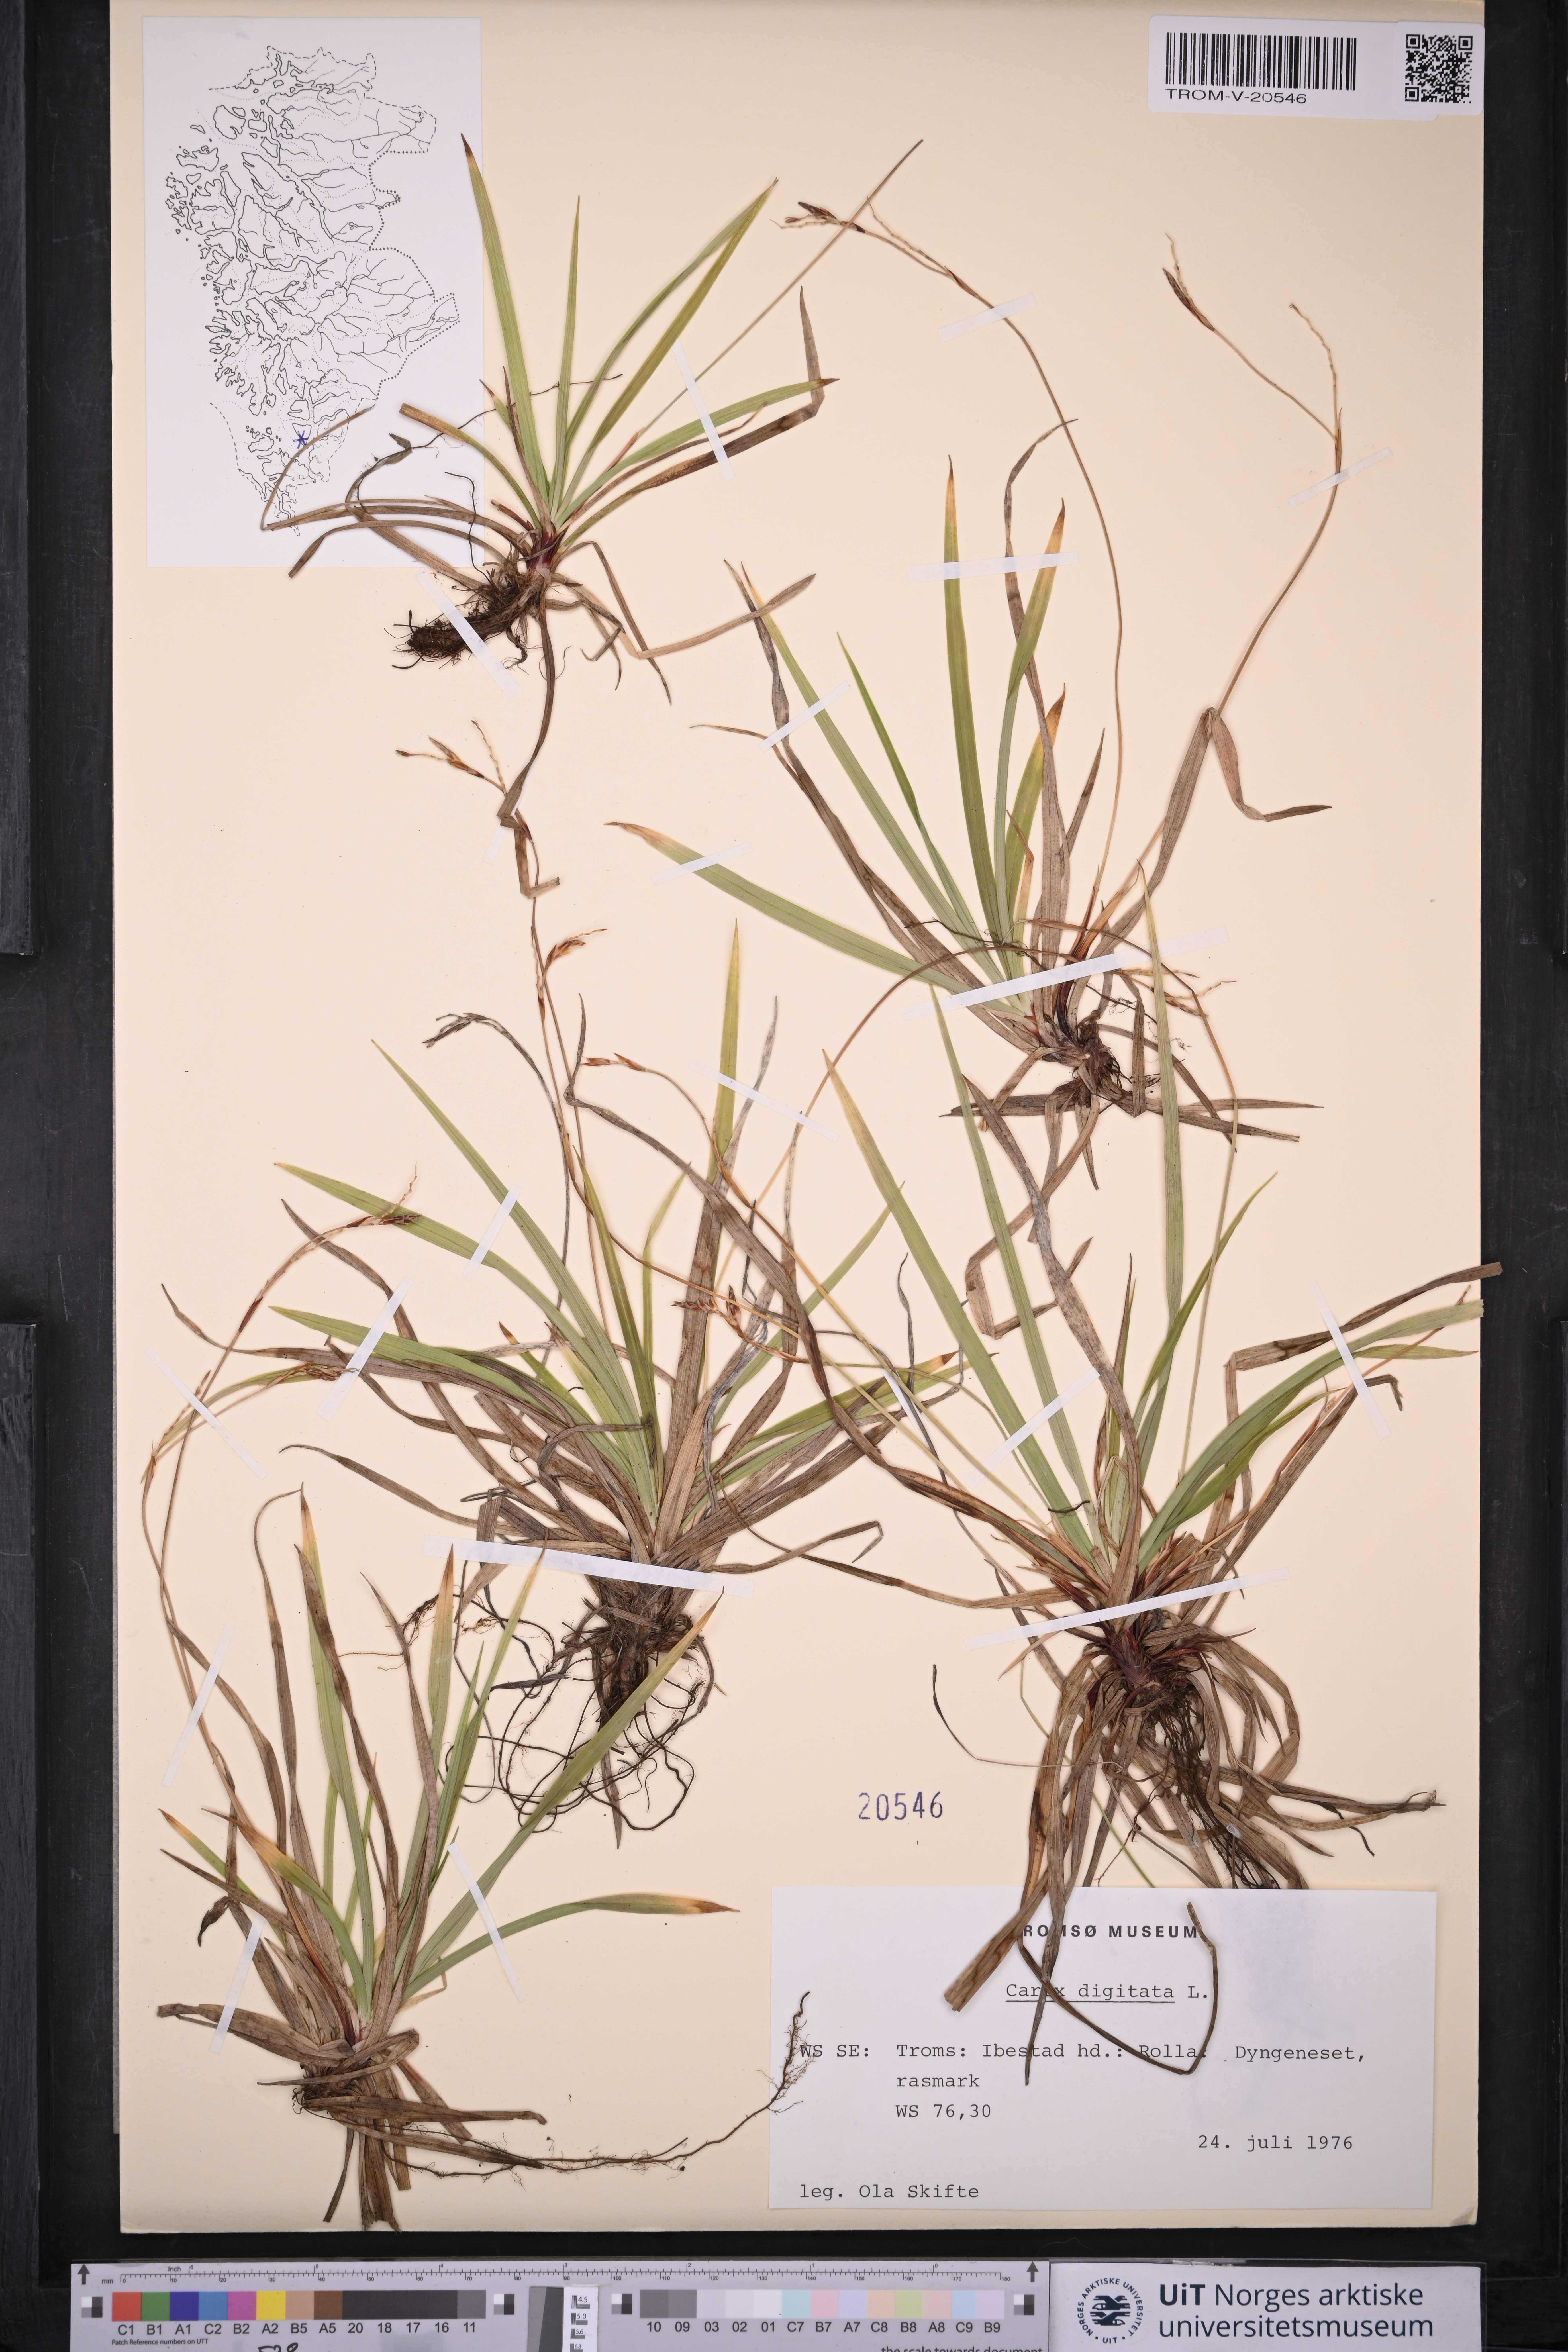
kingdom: Plantae
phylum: Tracheophyta
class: Liliopsida
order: Poales
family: Cyperaceae
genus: Carex
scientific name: Carex digitata
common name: Fingered sedge
